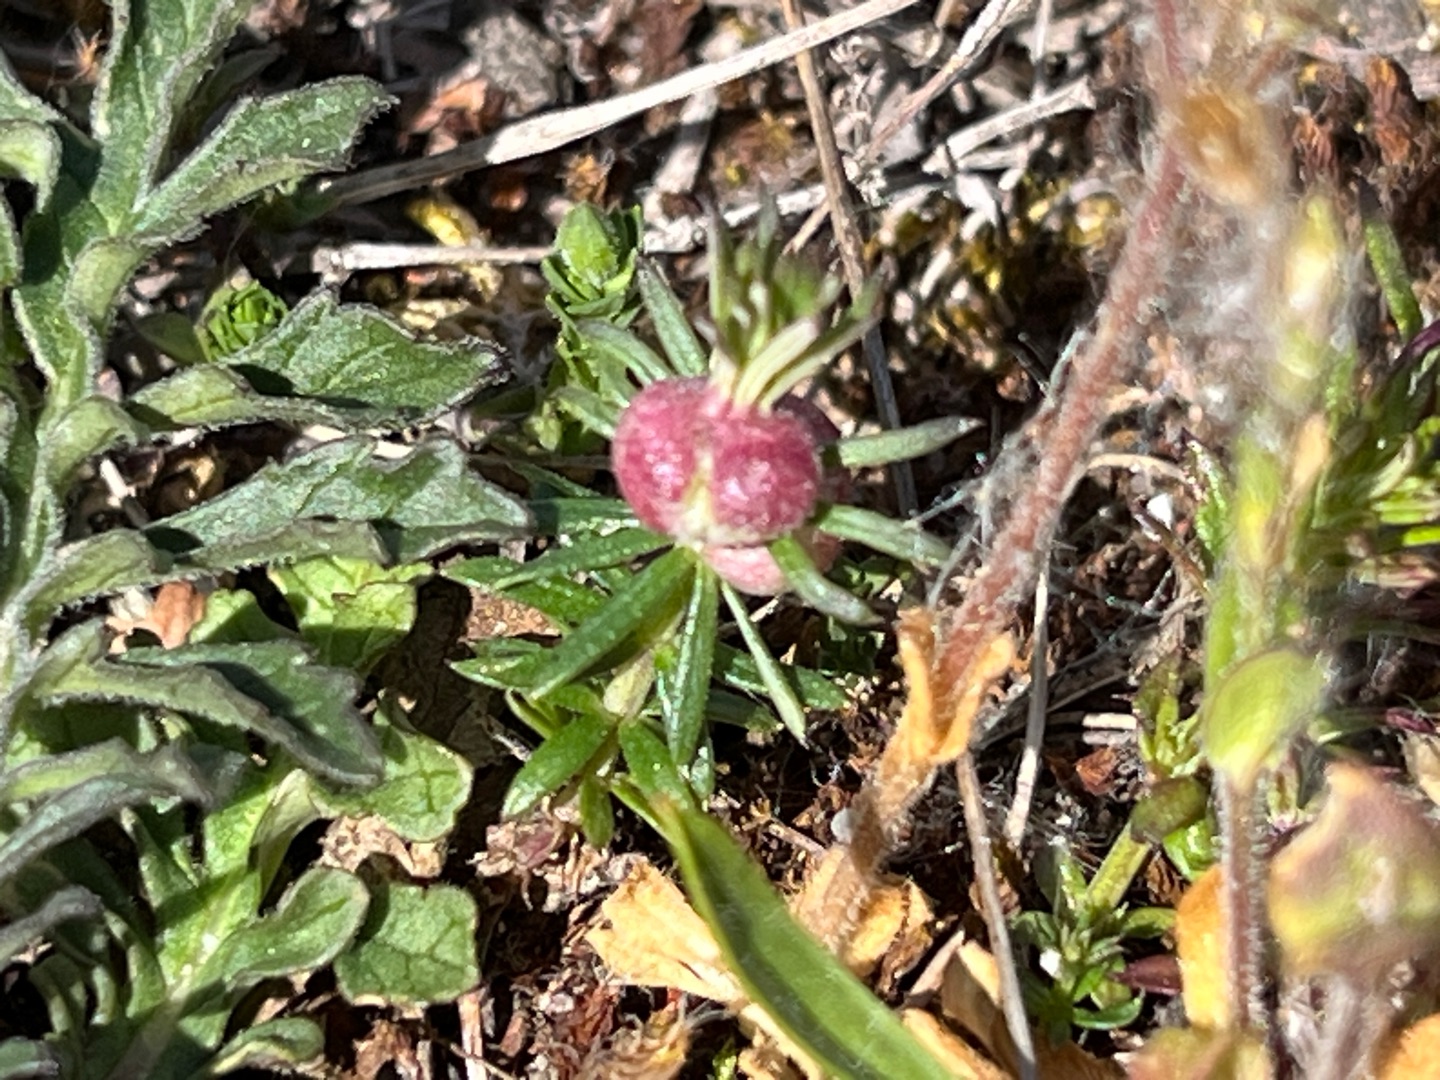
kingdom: Animalia
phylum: Arthropoda
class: Insecta
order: Diptera
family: Cecidomyiidae
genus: Geocrypta
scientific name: Geocrypta galii
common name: Snerrestængelgalmyg
